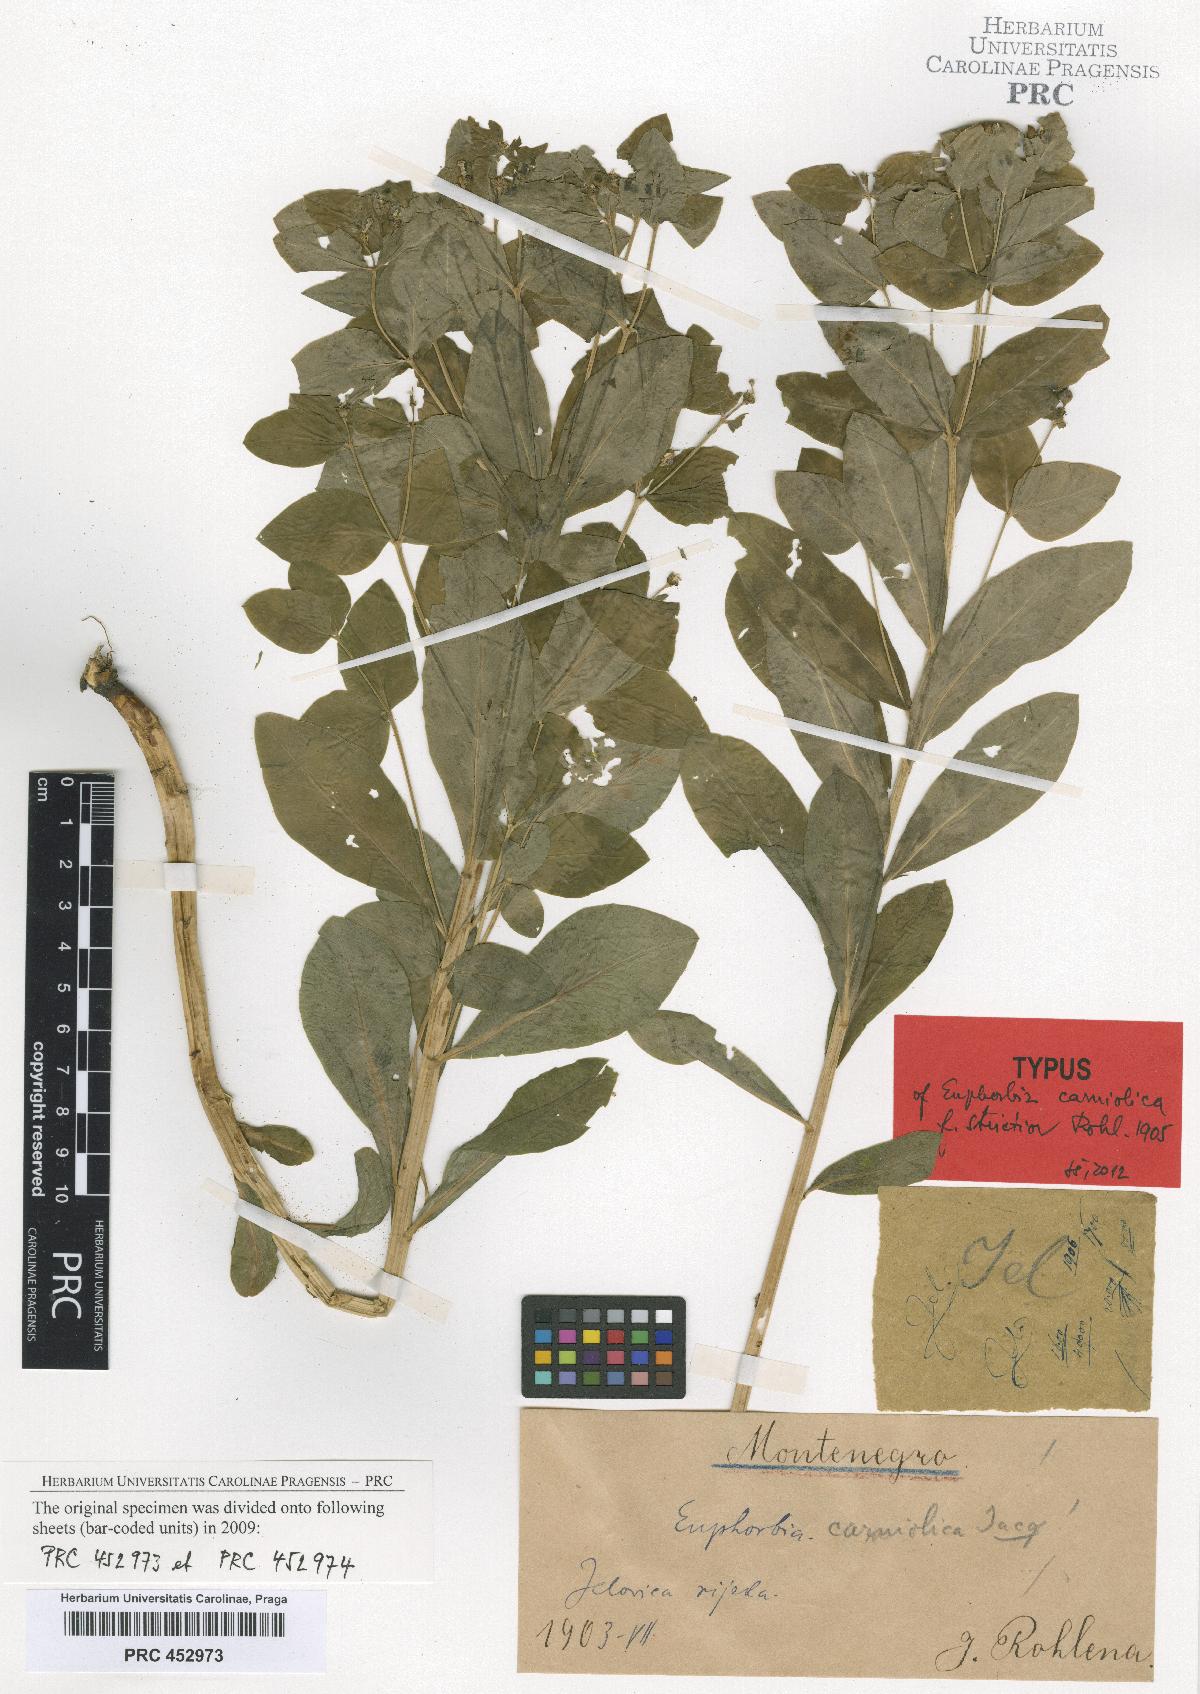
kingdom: Plantae
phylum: Tracheophyta
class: Magnoliopsida
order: Malpighiales
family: Euphorbiaceae
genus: Euphorbia
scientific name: Euphorbia carniolica
